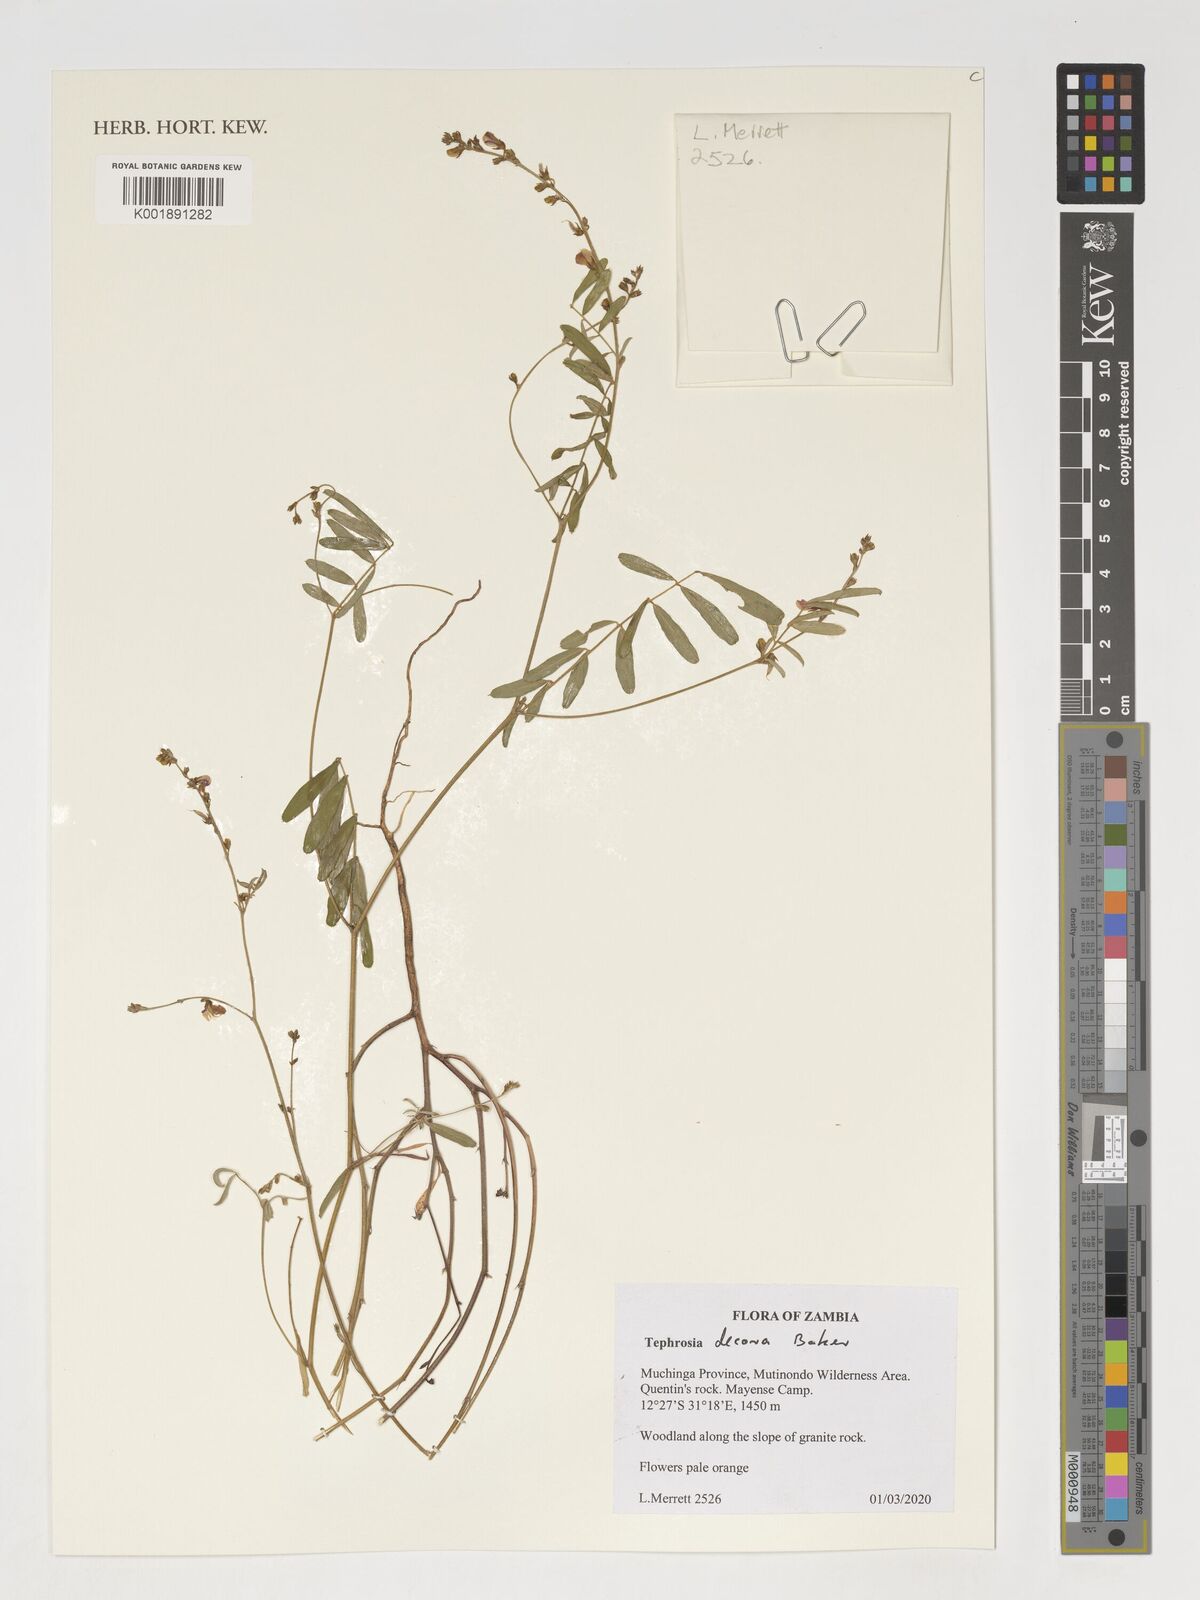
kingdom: Plantae
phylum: Tracheophyta
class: Magnoliopsida
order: Fabales
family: Fabaceae
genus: Tephrosia
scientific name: Tephrosia decora
